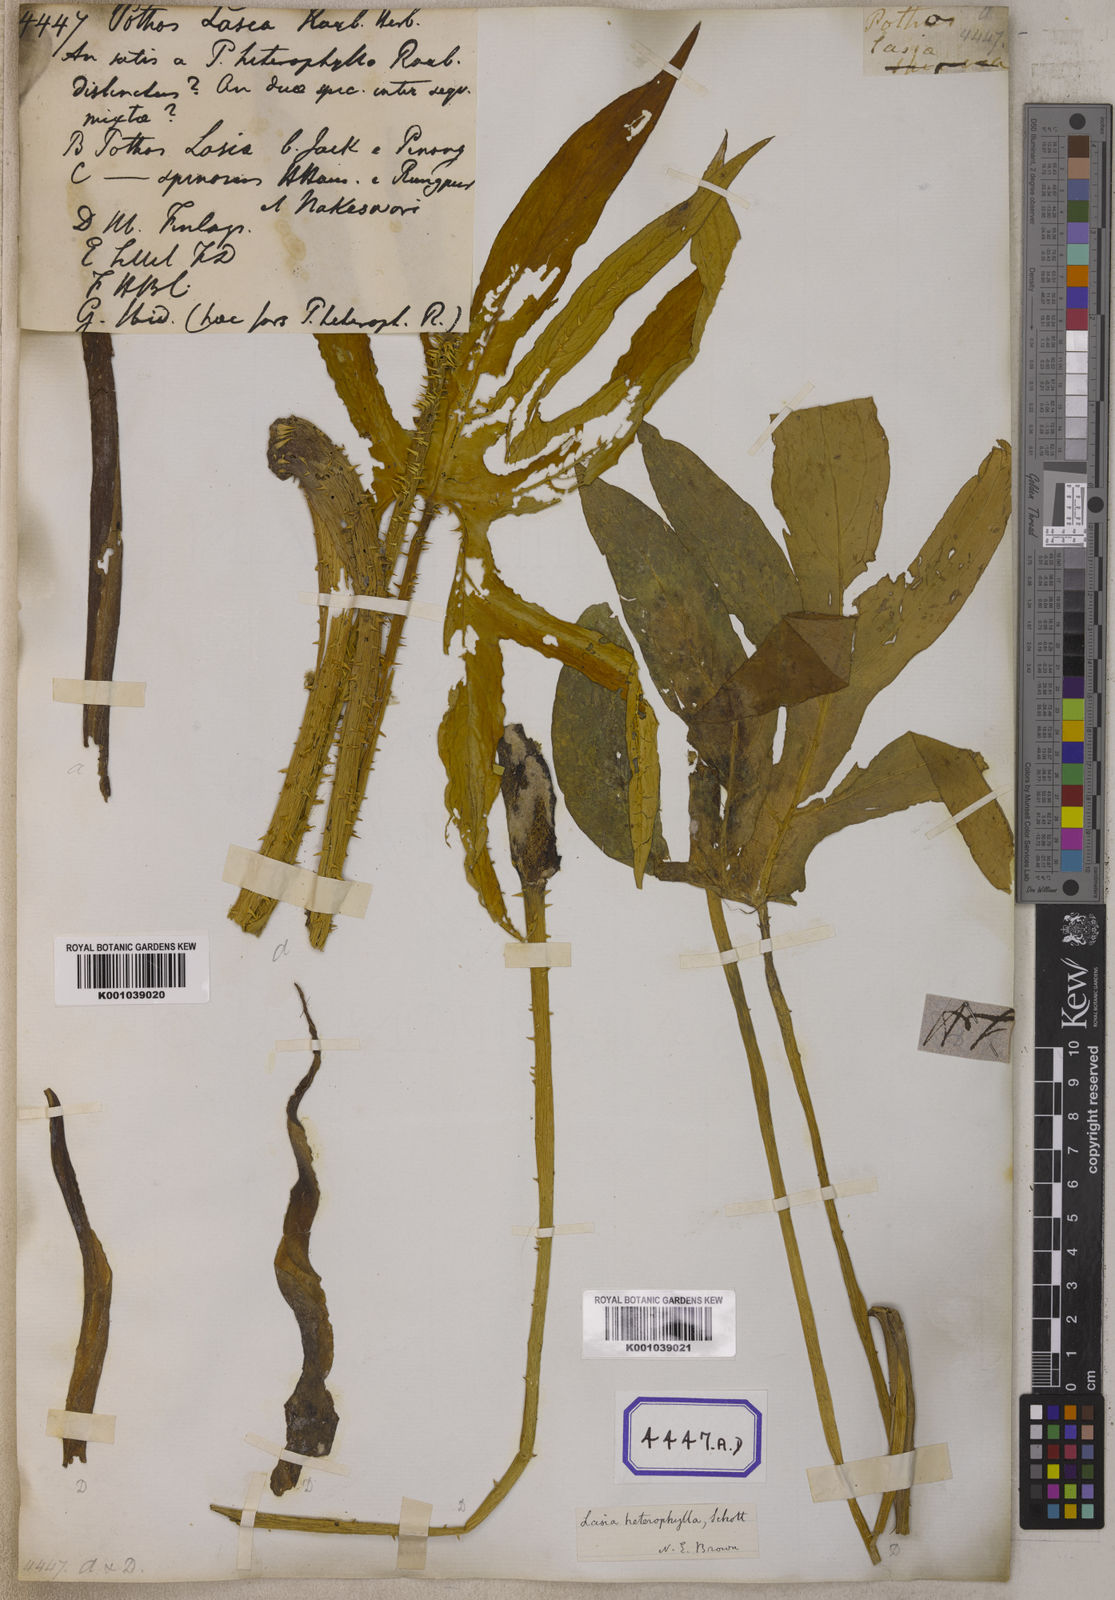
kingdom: Plantae
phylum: Tracheophyta
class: Liliopsida
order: Alismatales
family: Araceae
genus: Lasia
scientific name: Lasia spinosa
